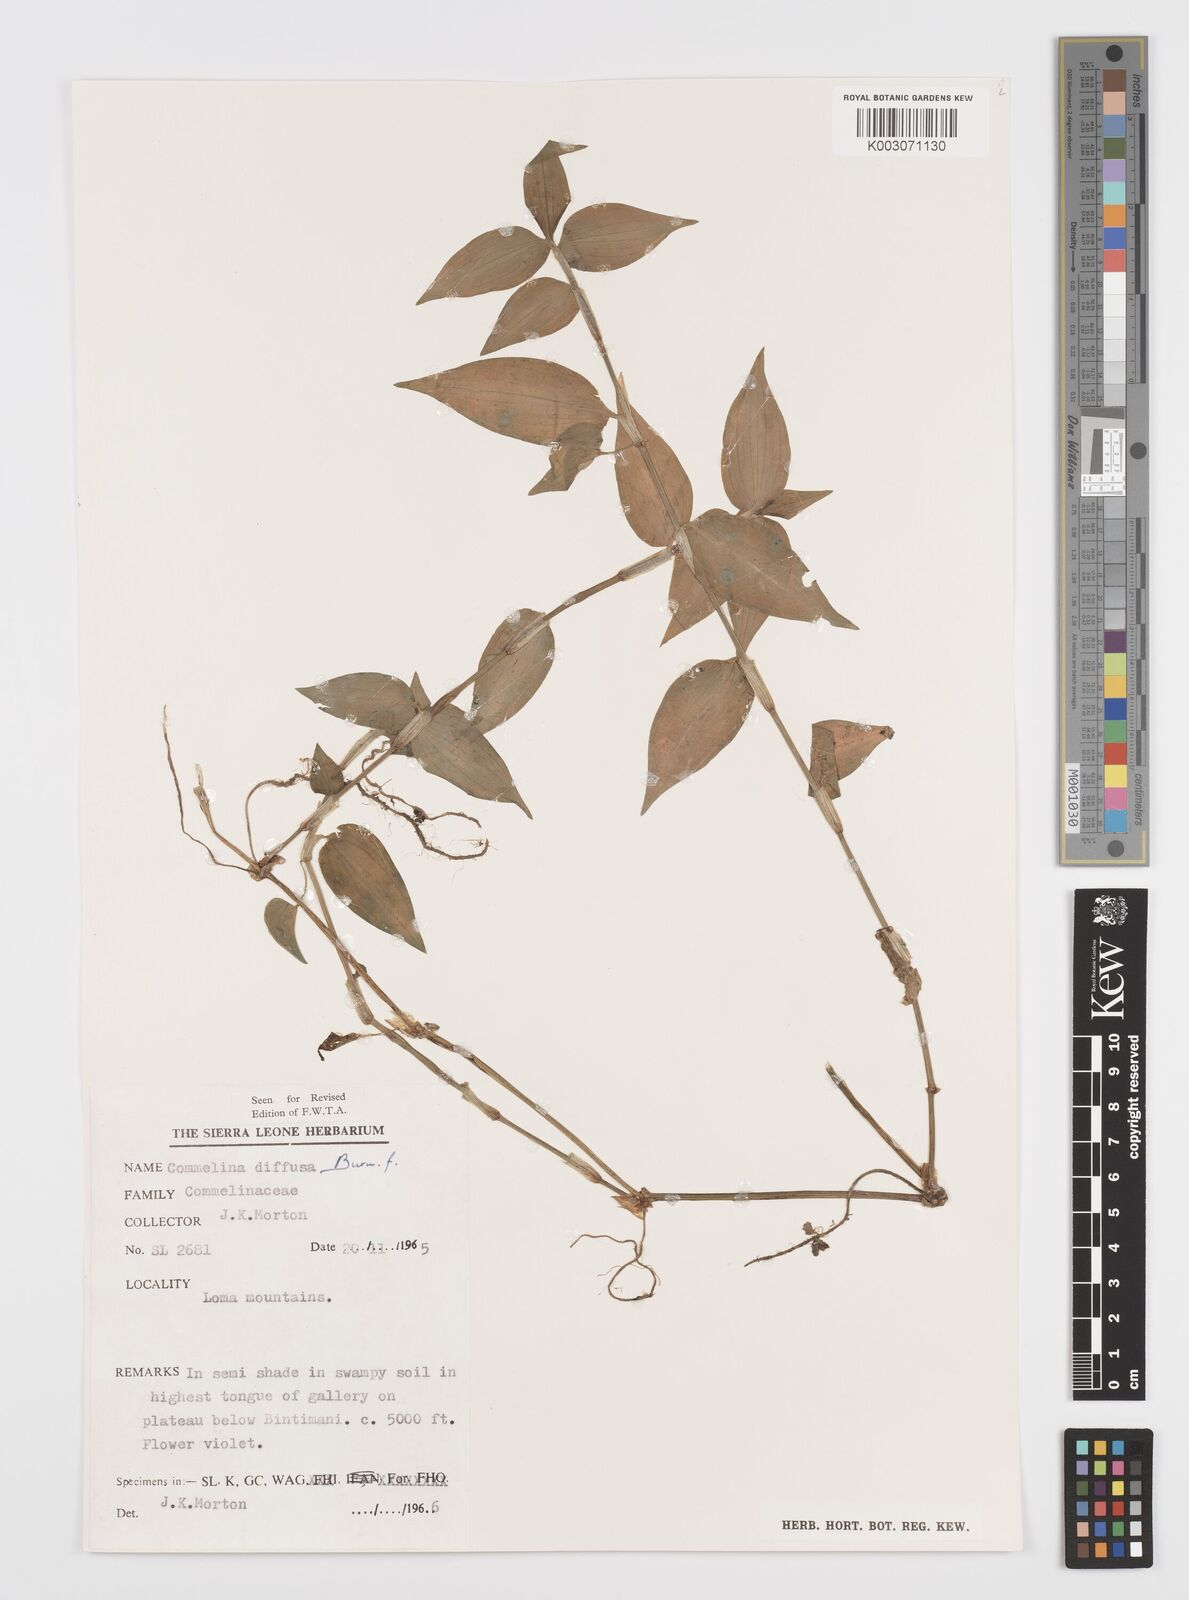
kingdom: Plantae
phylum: Tracheophyta
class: Liliopsida
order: Commelinales
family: Commelinaceae
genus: Commelina
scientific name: Commelina diffusa
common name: Climbing dayflower
